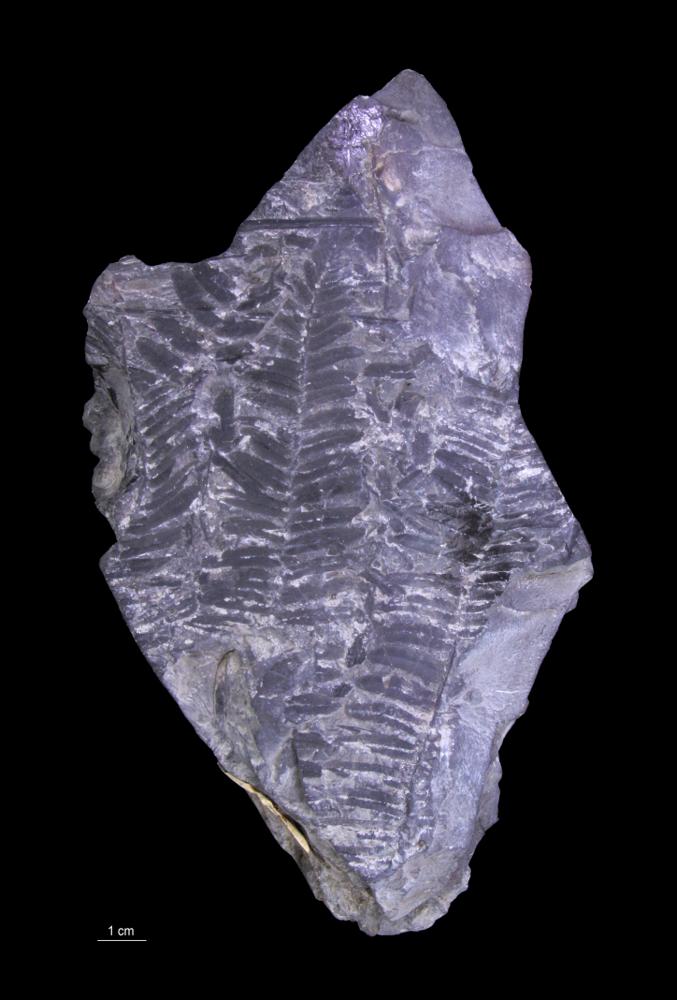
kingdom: Plantae
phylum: Tracheophyta
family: Pachytestaceae
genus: Neuropteris
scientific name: Neuropteris
